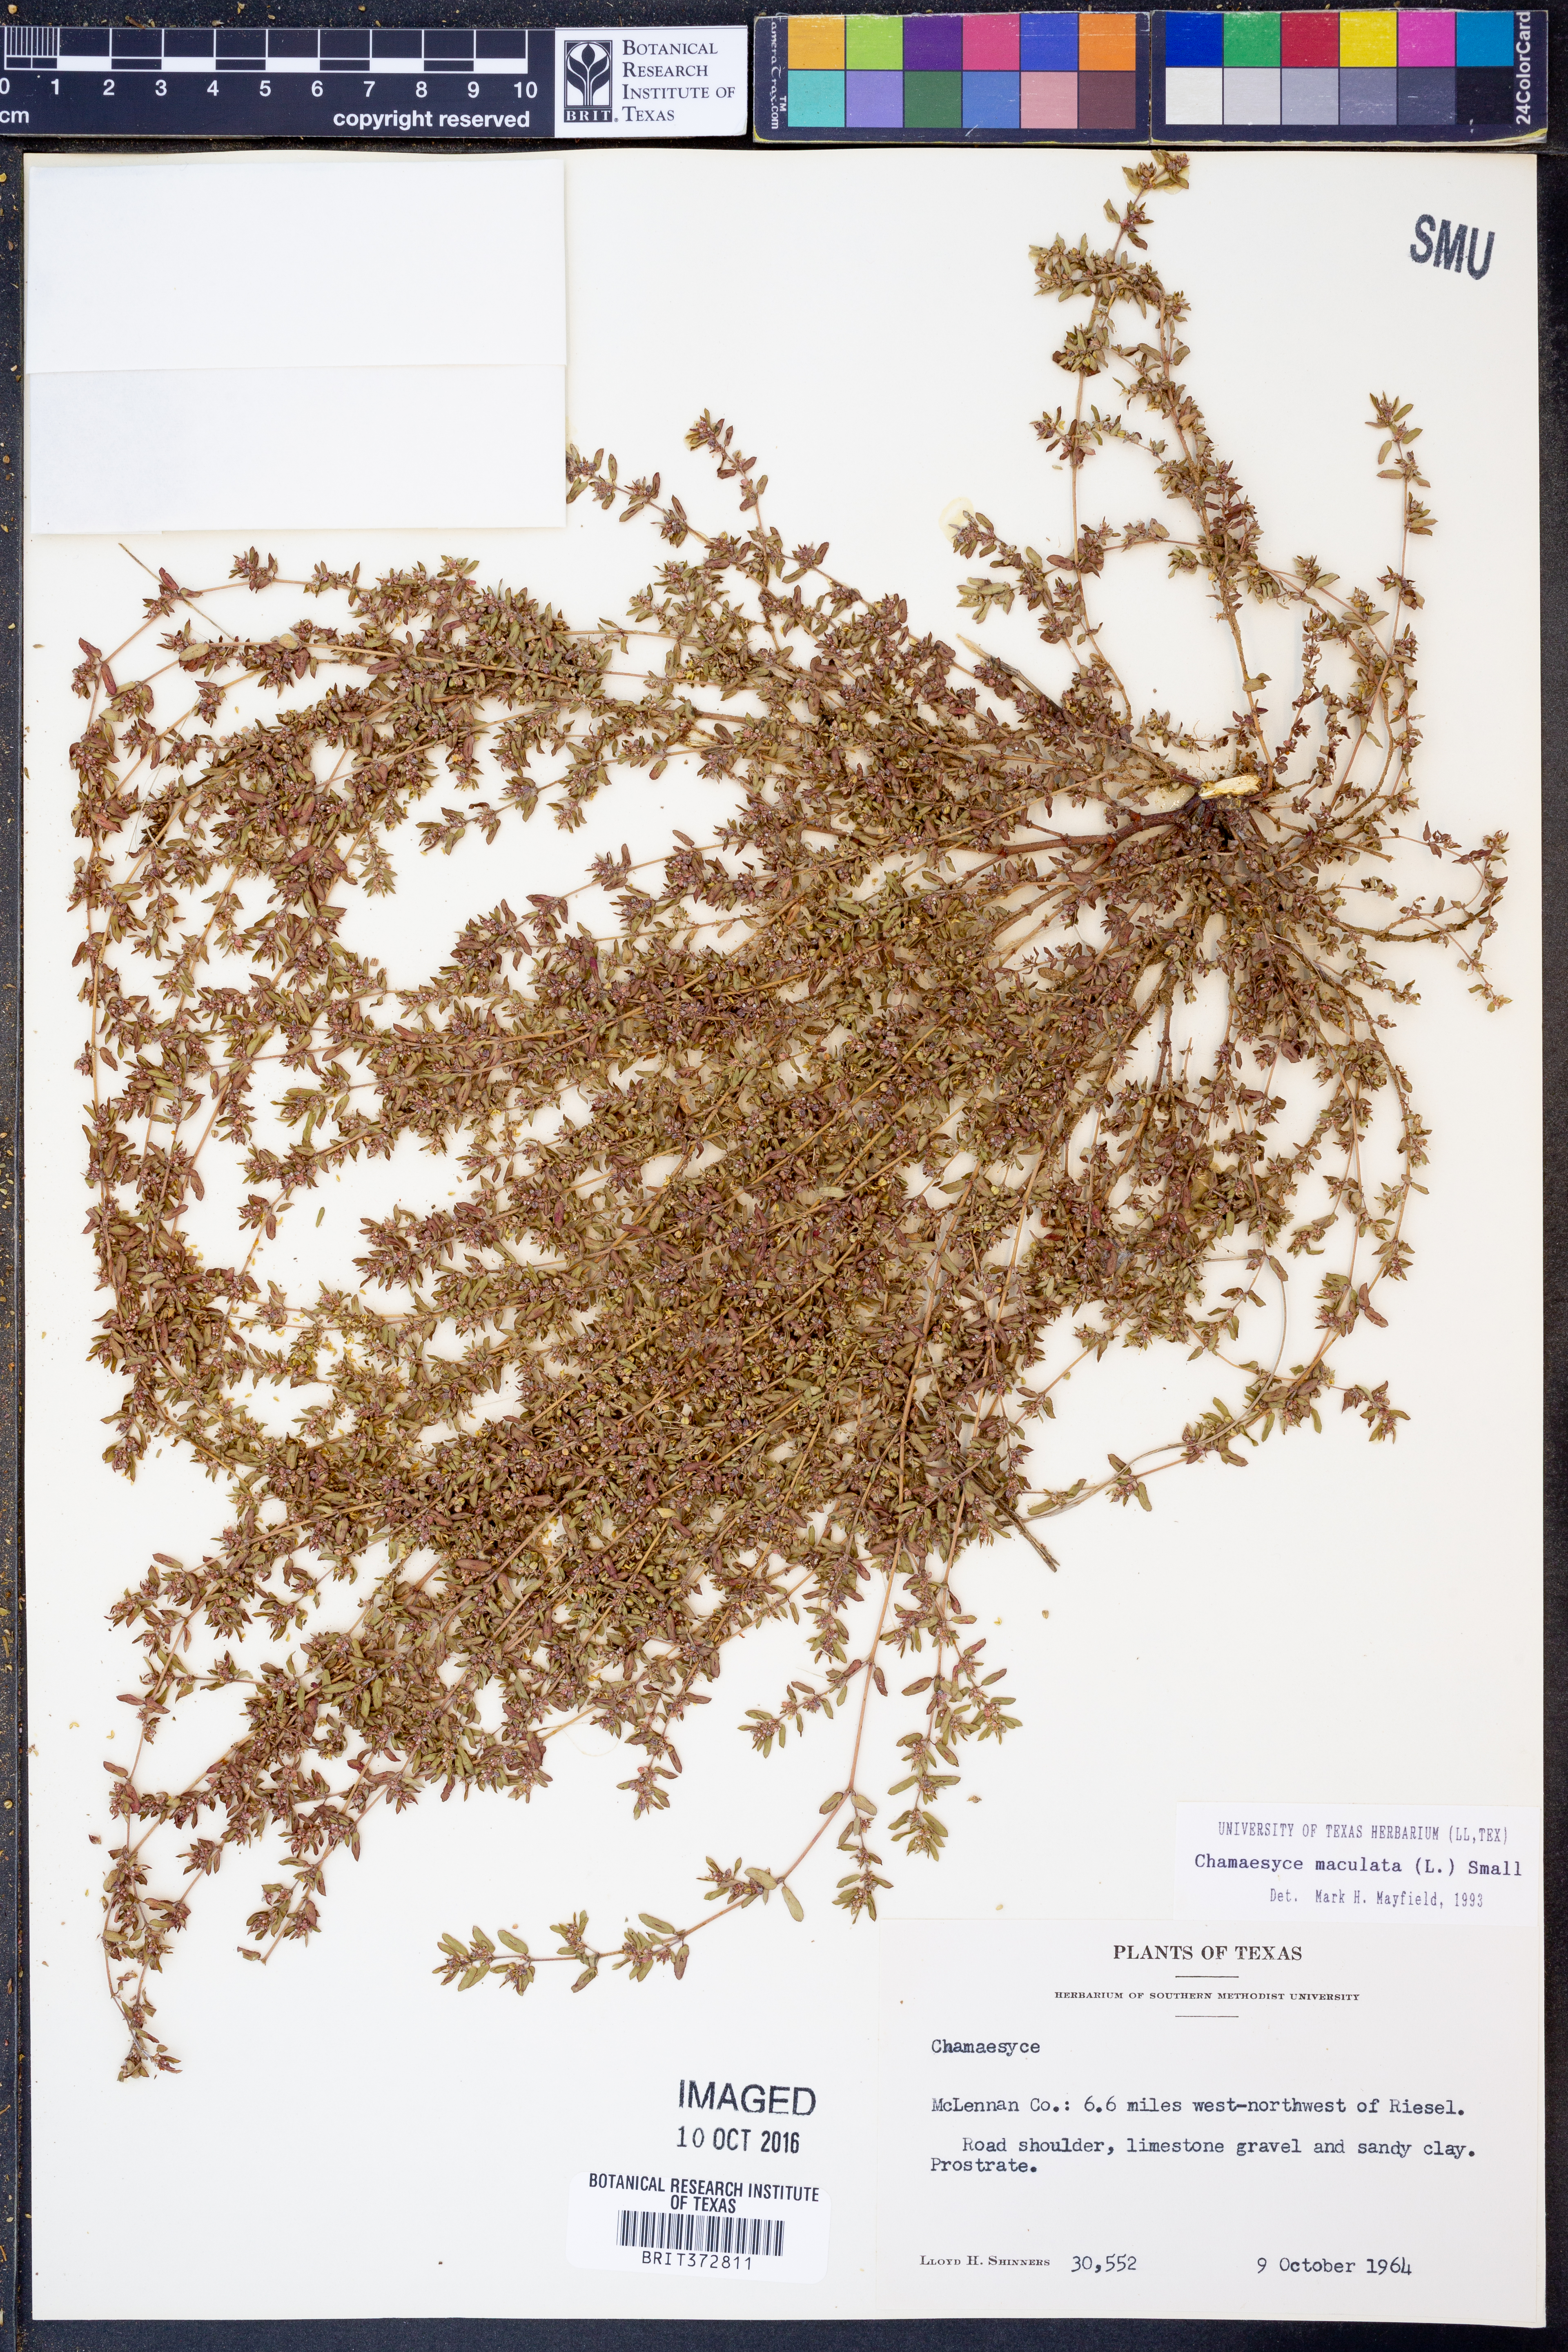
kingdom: Plantae
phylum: Tracheophyta
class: Magnoliopsida
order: Malpighiales
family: Euphorbiaceae
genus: Euphorbia
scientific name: Euphorbia maculata
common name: Spotted spurge
